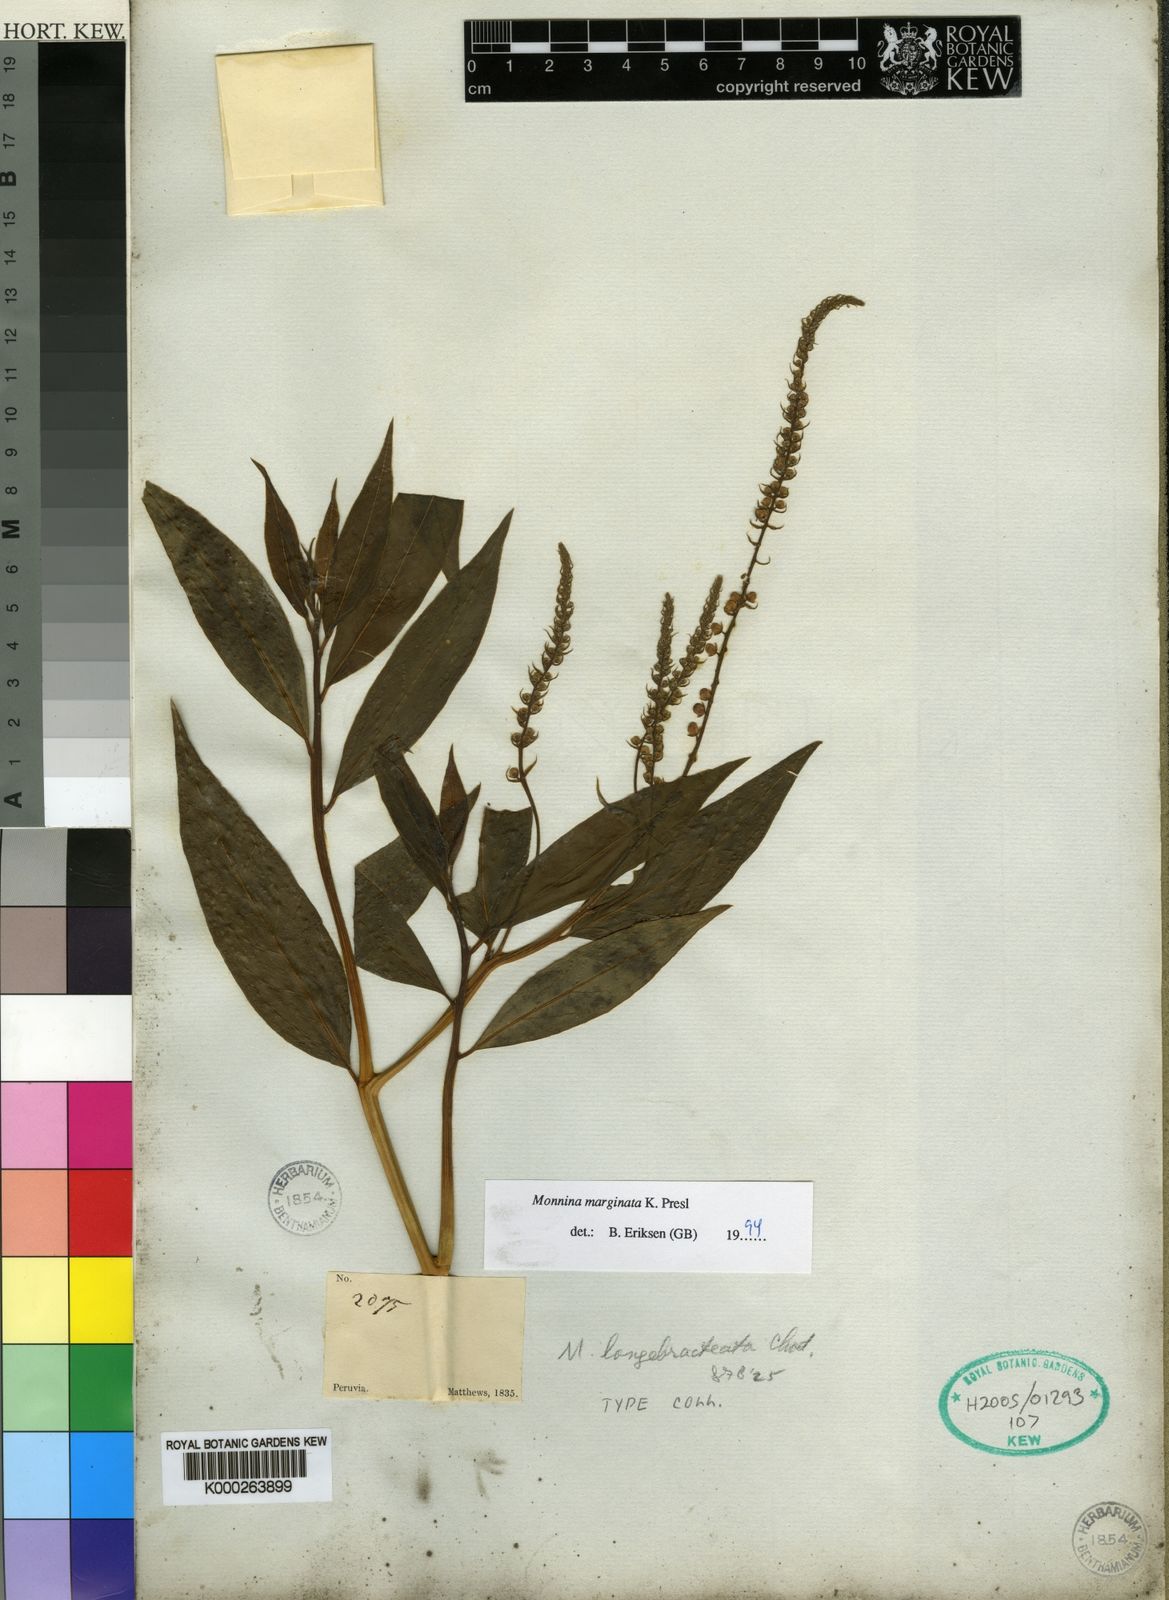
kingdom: Plantae
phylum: Tracheophyta
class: Magnoliopsida
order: Fabales
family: Polygalaceae
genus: Monnina
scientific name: Monnina longibracteata
